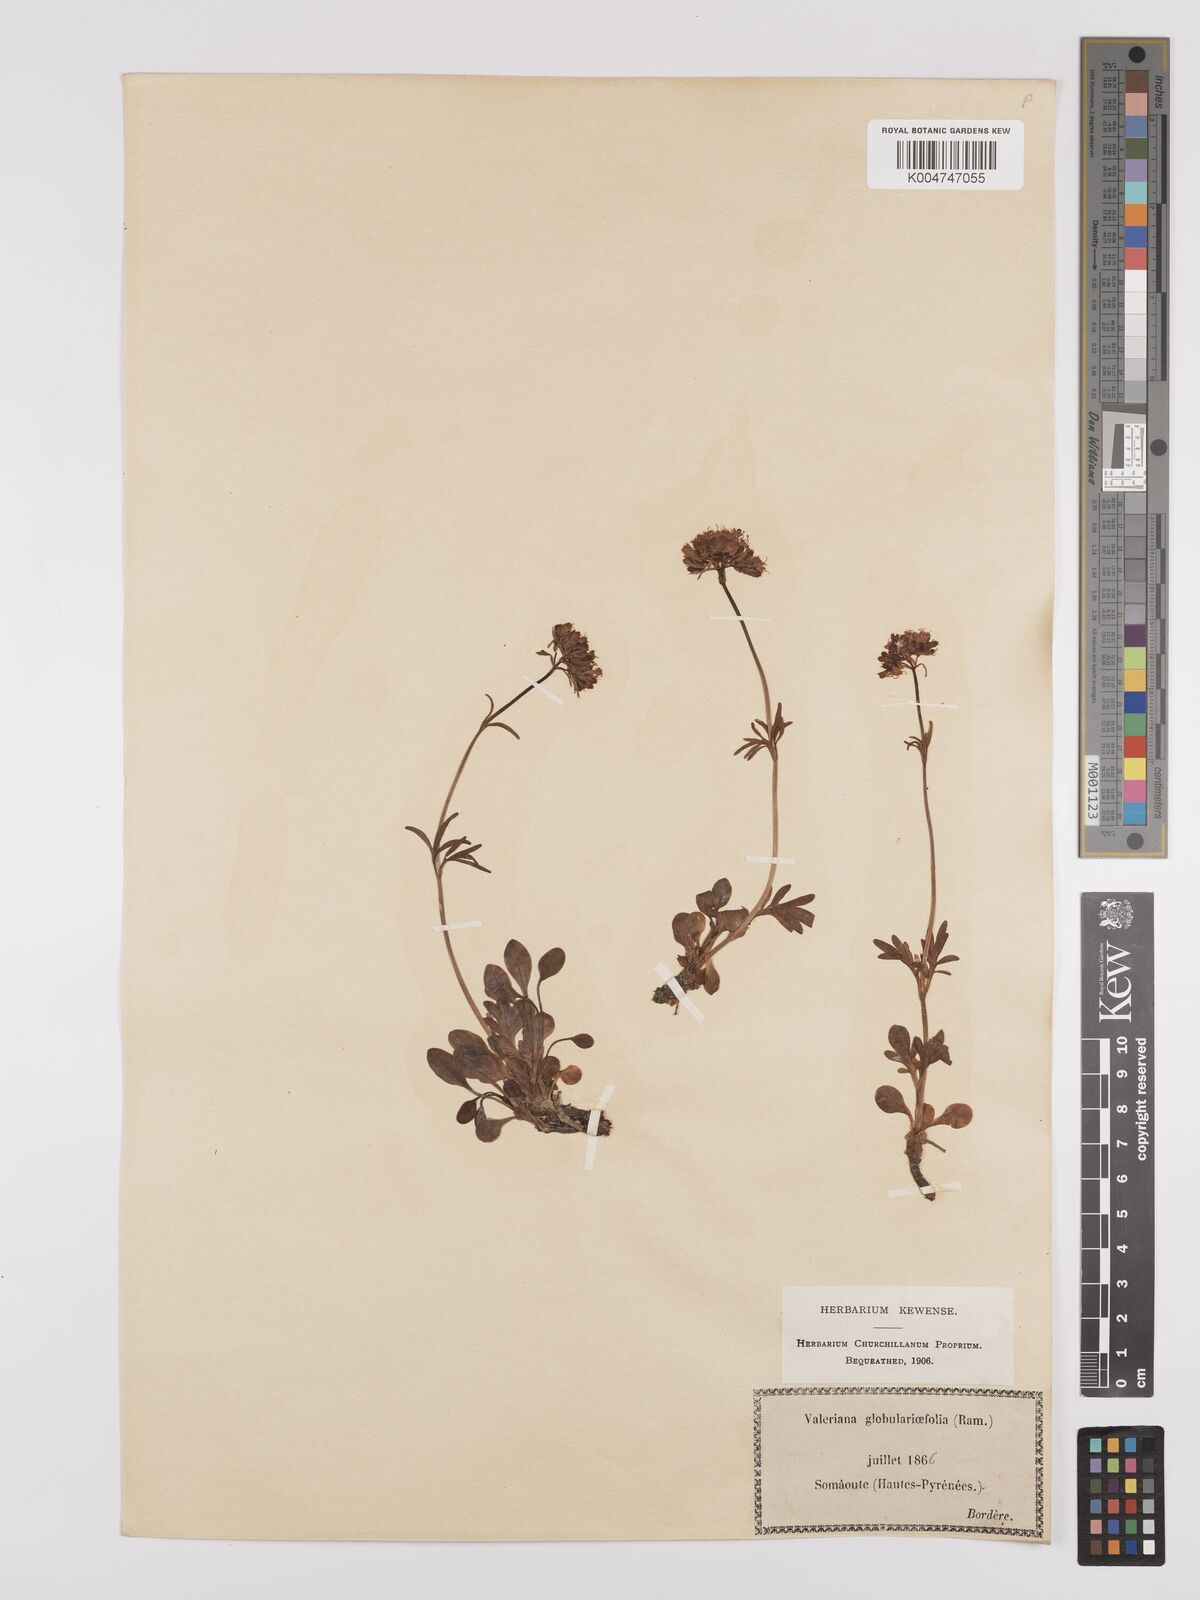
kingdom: Plantae
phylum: Tracheophyta
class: Magnoliopsida
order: Dipsacales
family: Caprifoliaceae
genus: Valeriana
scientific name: Valeriana apula
